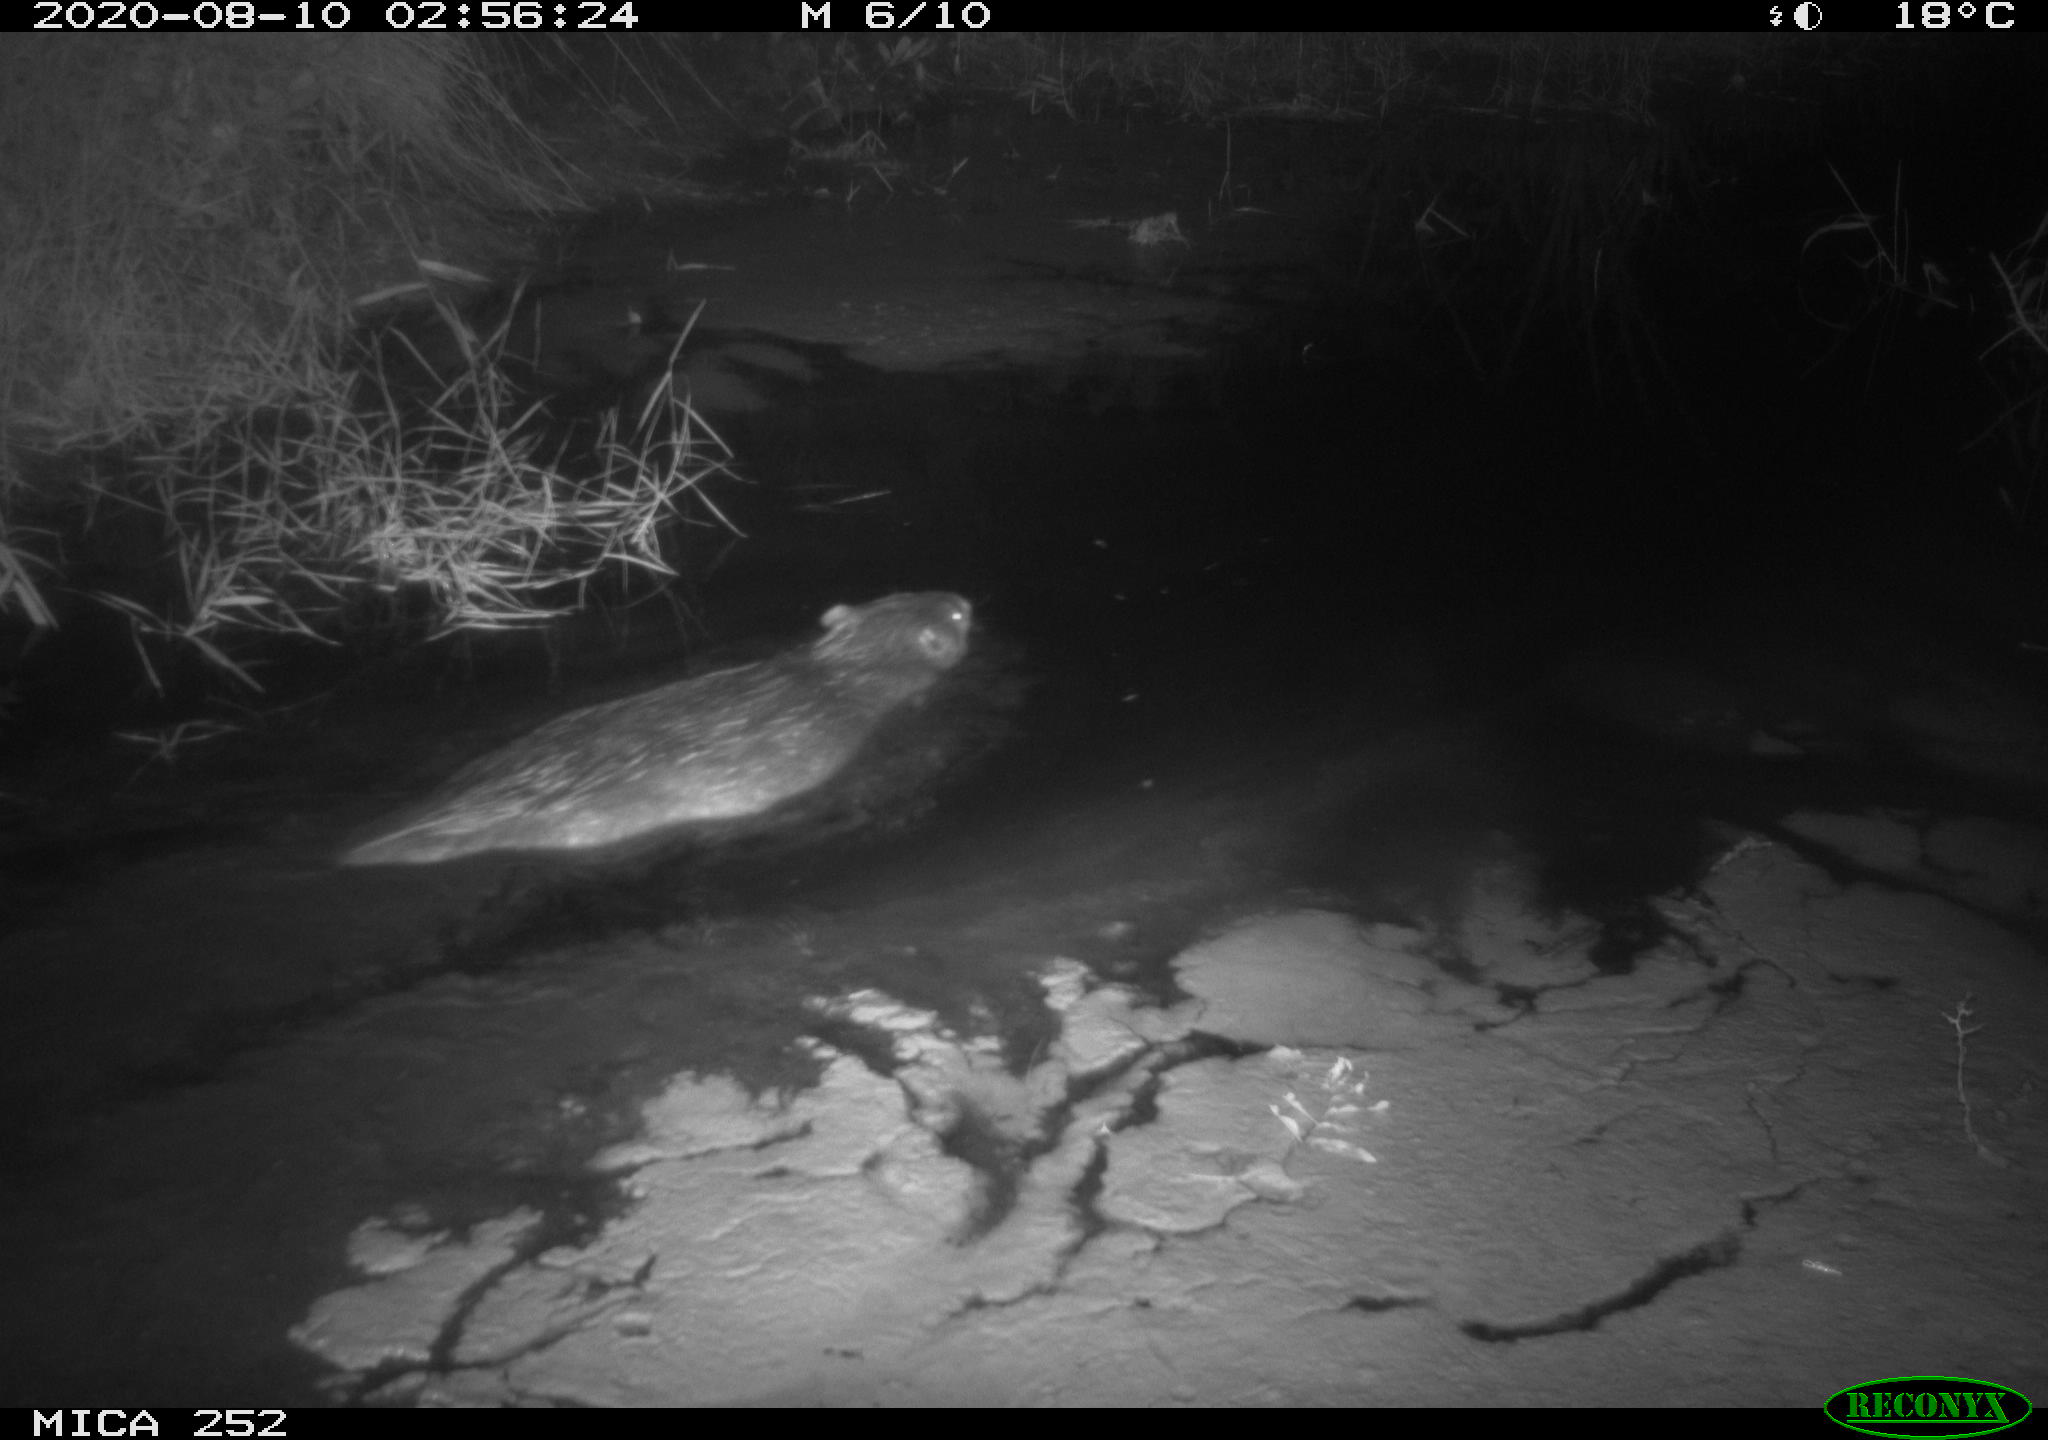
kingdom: Animalia
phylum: Chordata
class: Mammalia
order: Rodentia
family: Castoridae
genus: Castor
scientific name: Castor fiber
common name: Eurasian beaver
